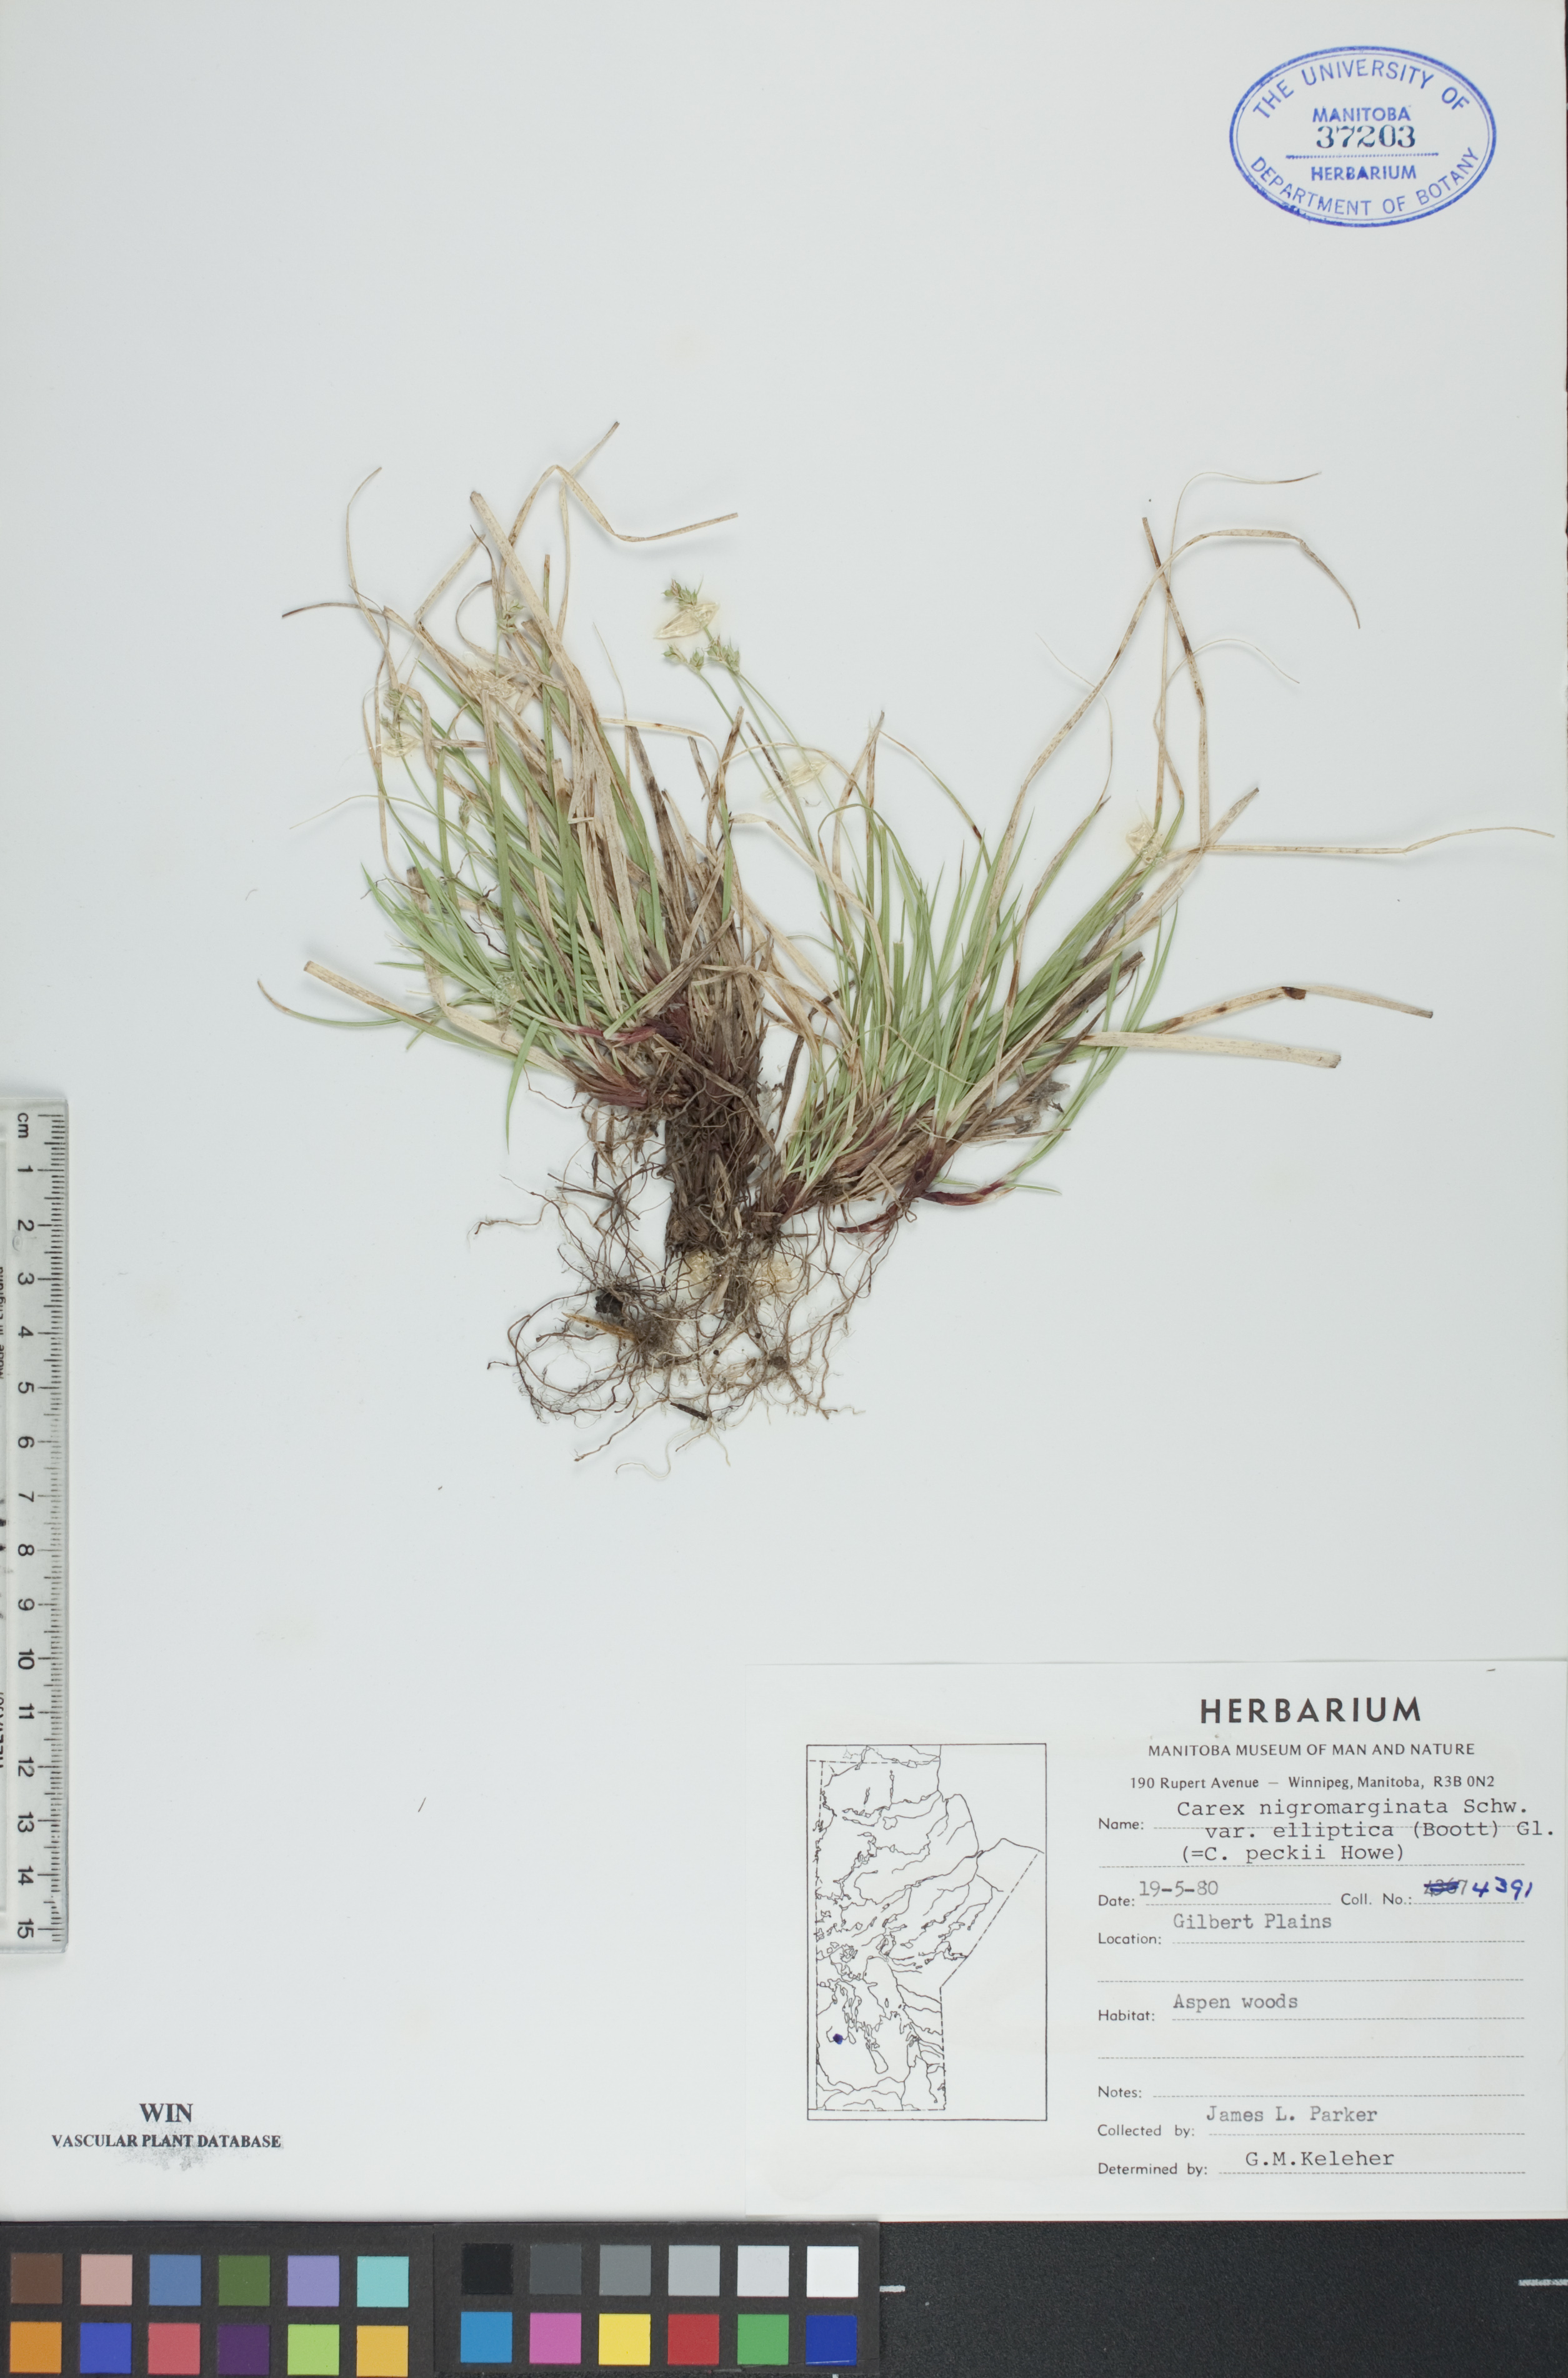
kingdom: Plantae
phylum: Tracheophyta
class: Liliopsida
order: Poales
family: Cyperaceae
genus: Carex
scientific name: Carex peckii
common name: Peck's oak sedge
